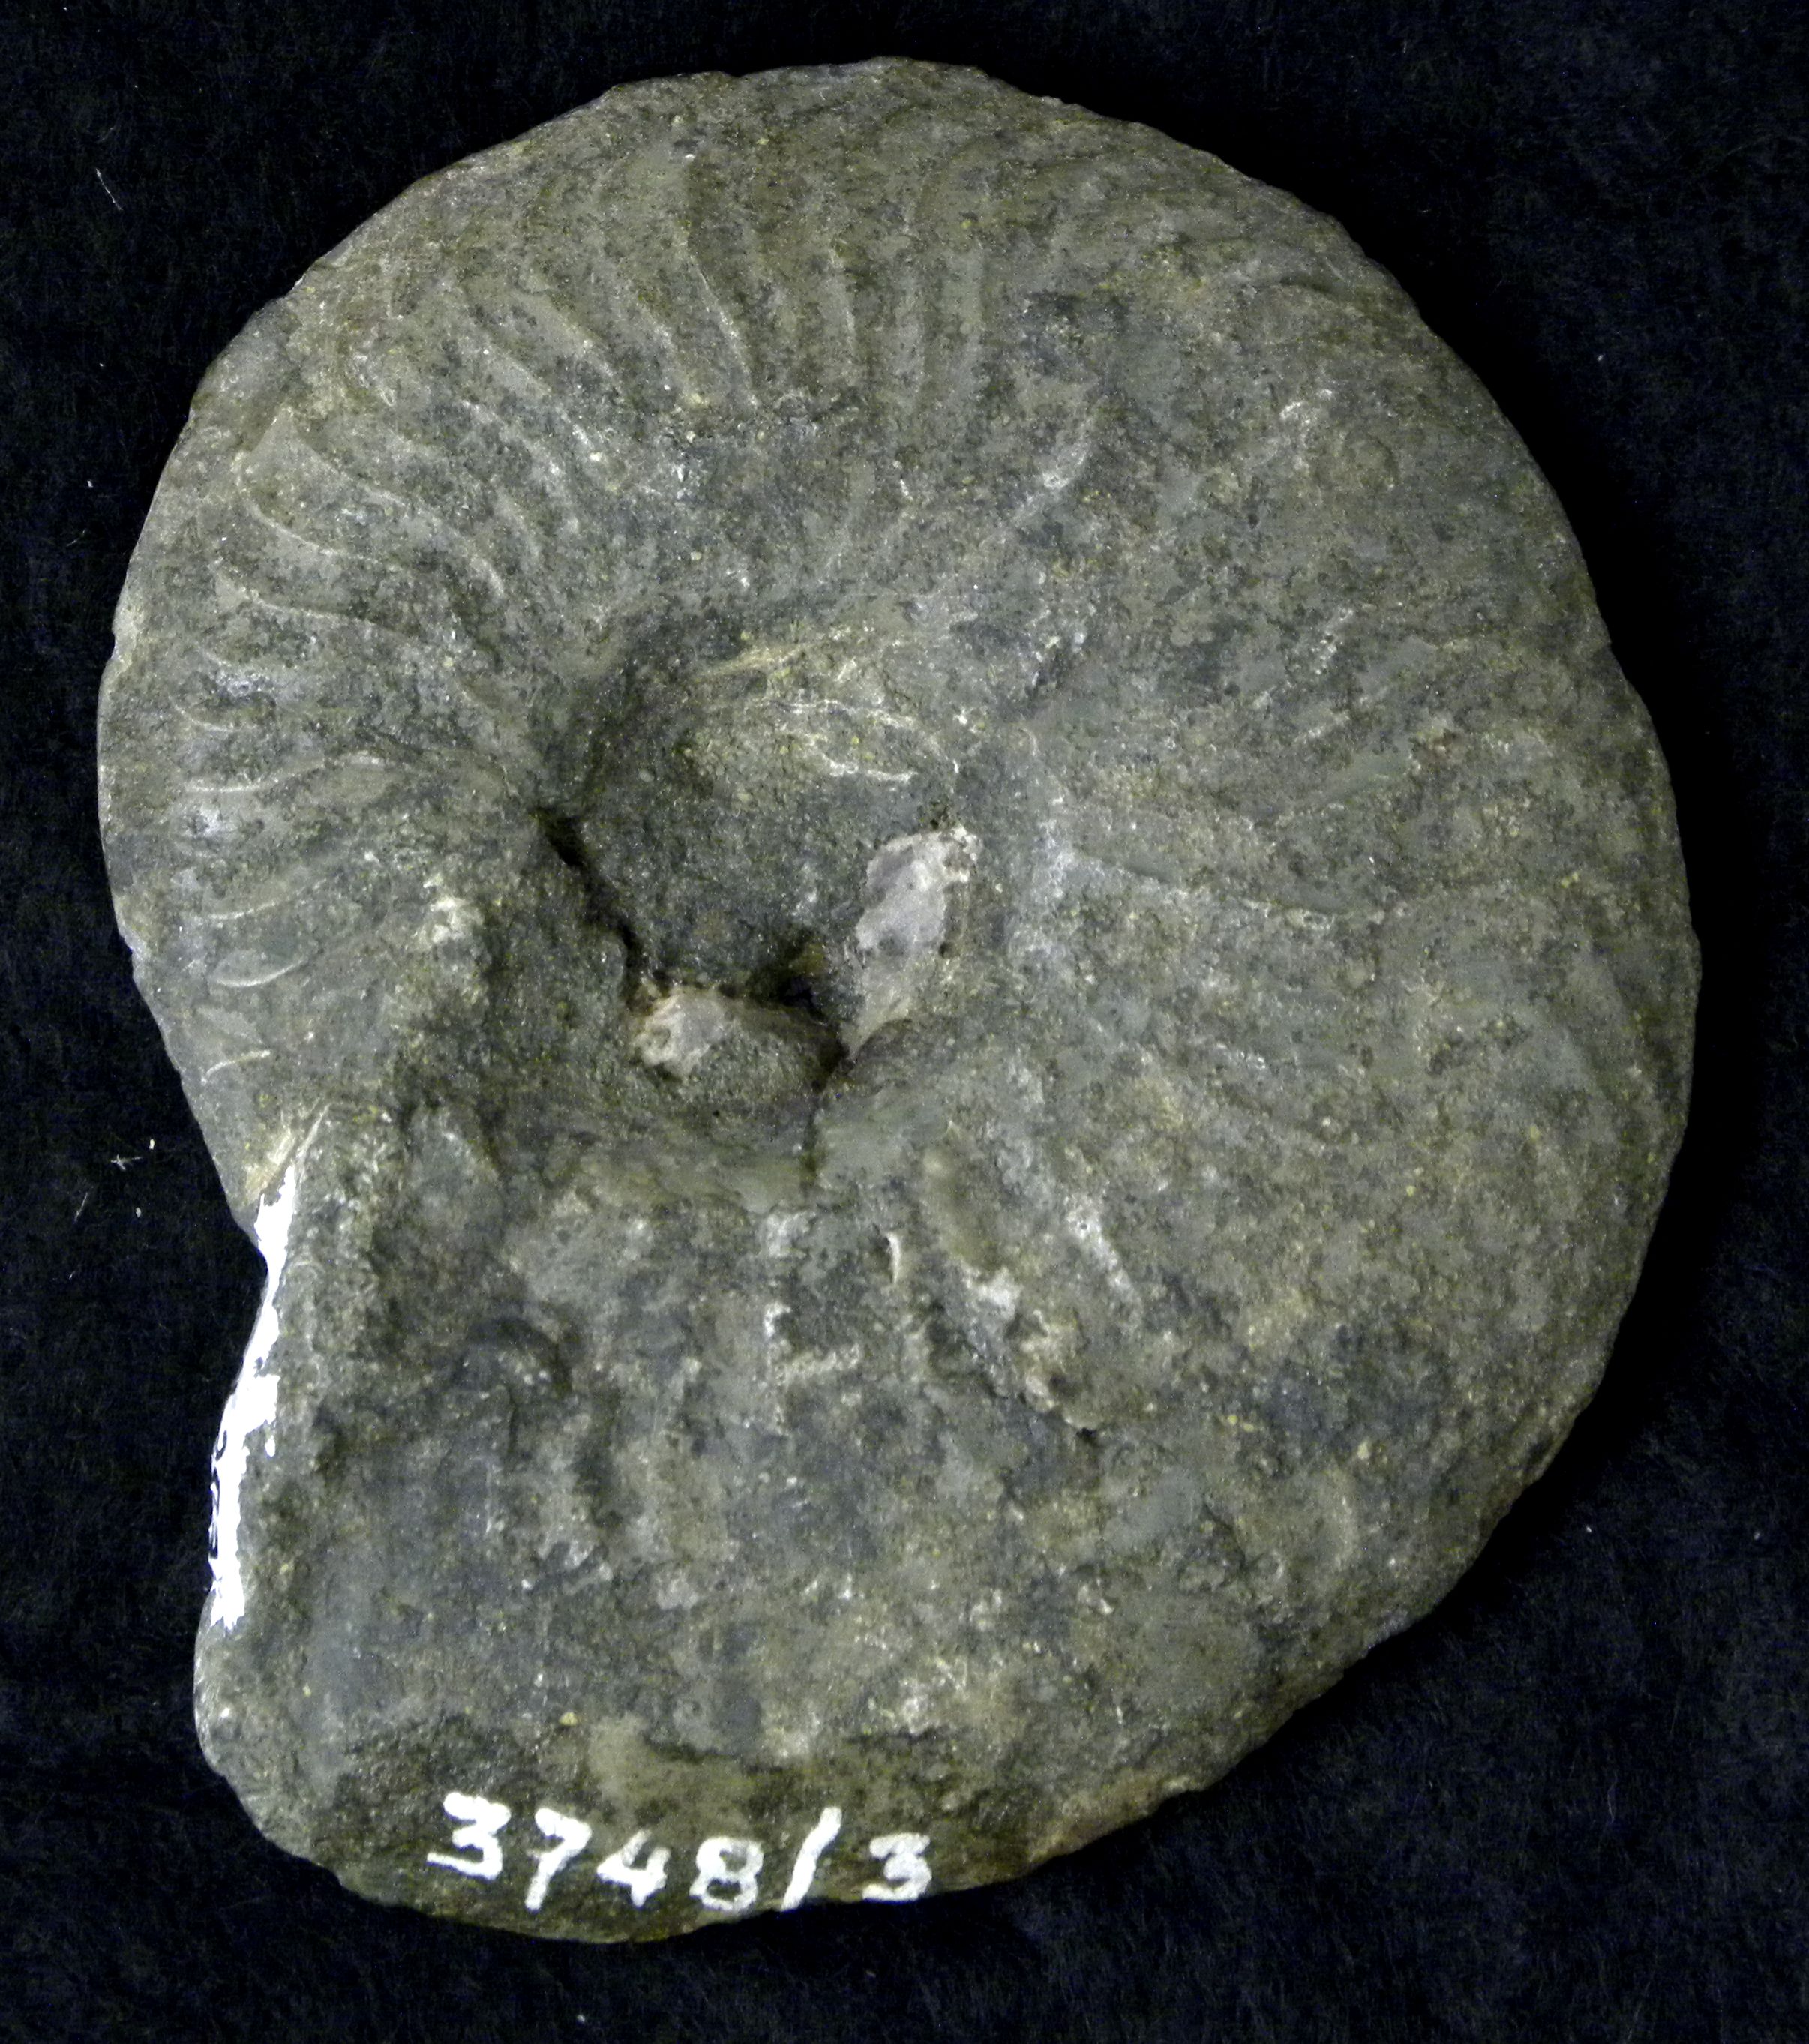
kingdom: Animalia
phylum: Mollusca
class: Cephalopoda
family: Hildoceratidae
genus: Pleydellia
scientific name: Pleydellia
